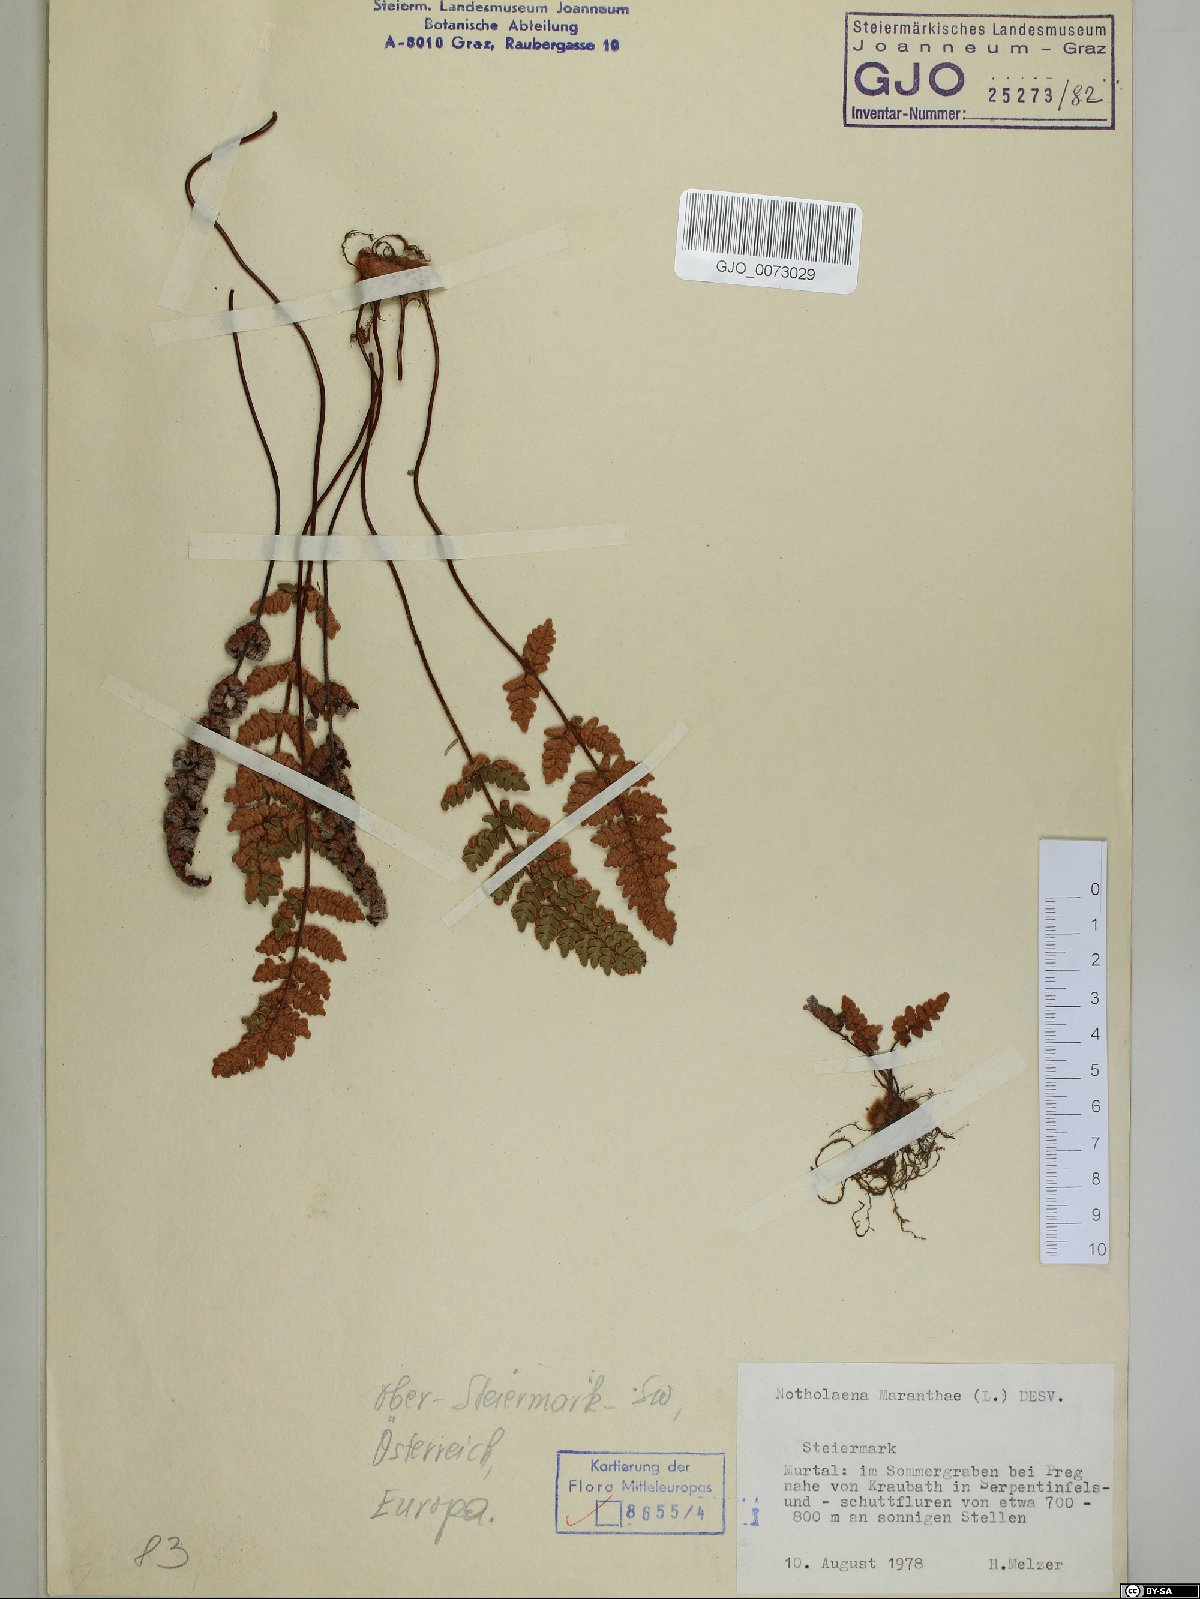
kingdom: Plantae
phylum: Tracheophyta
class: Polypodiopsida
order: Polypodiales
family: Pteridaceae
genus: Paragymnopteris
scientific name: Paragymnopteris marantae
